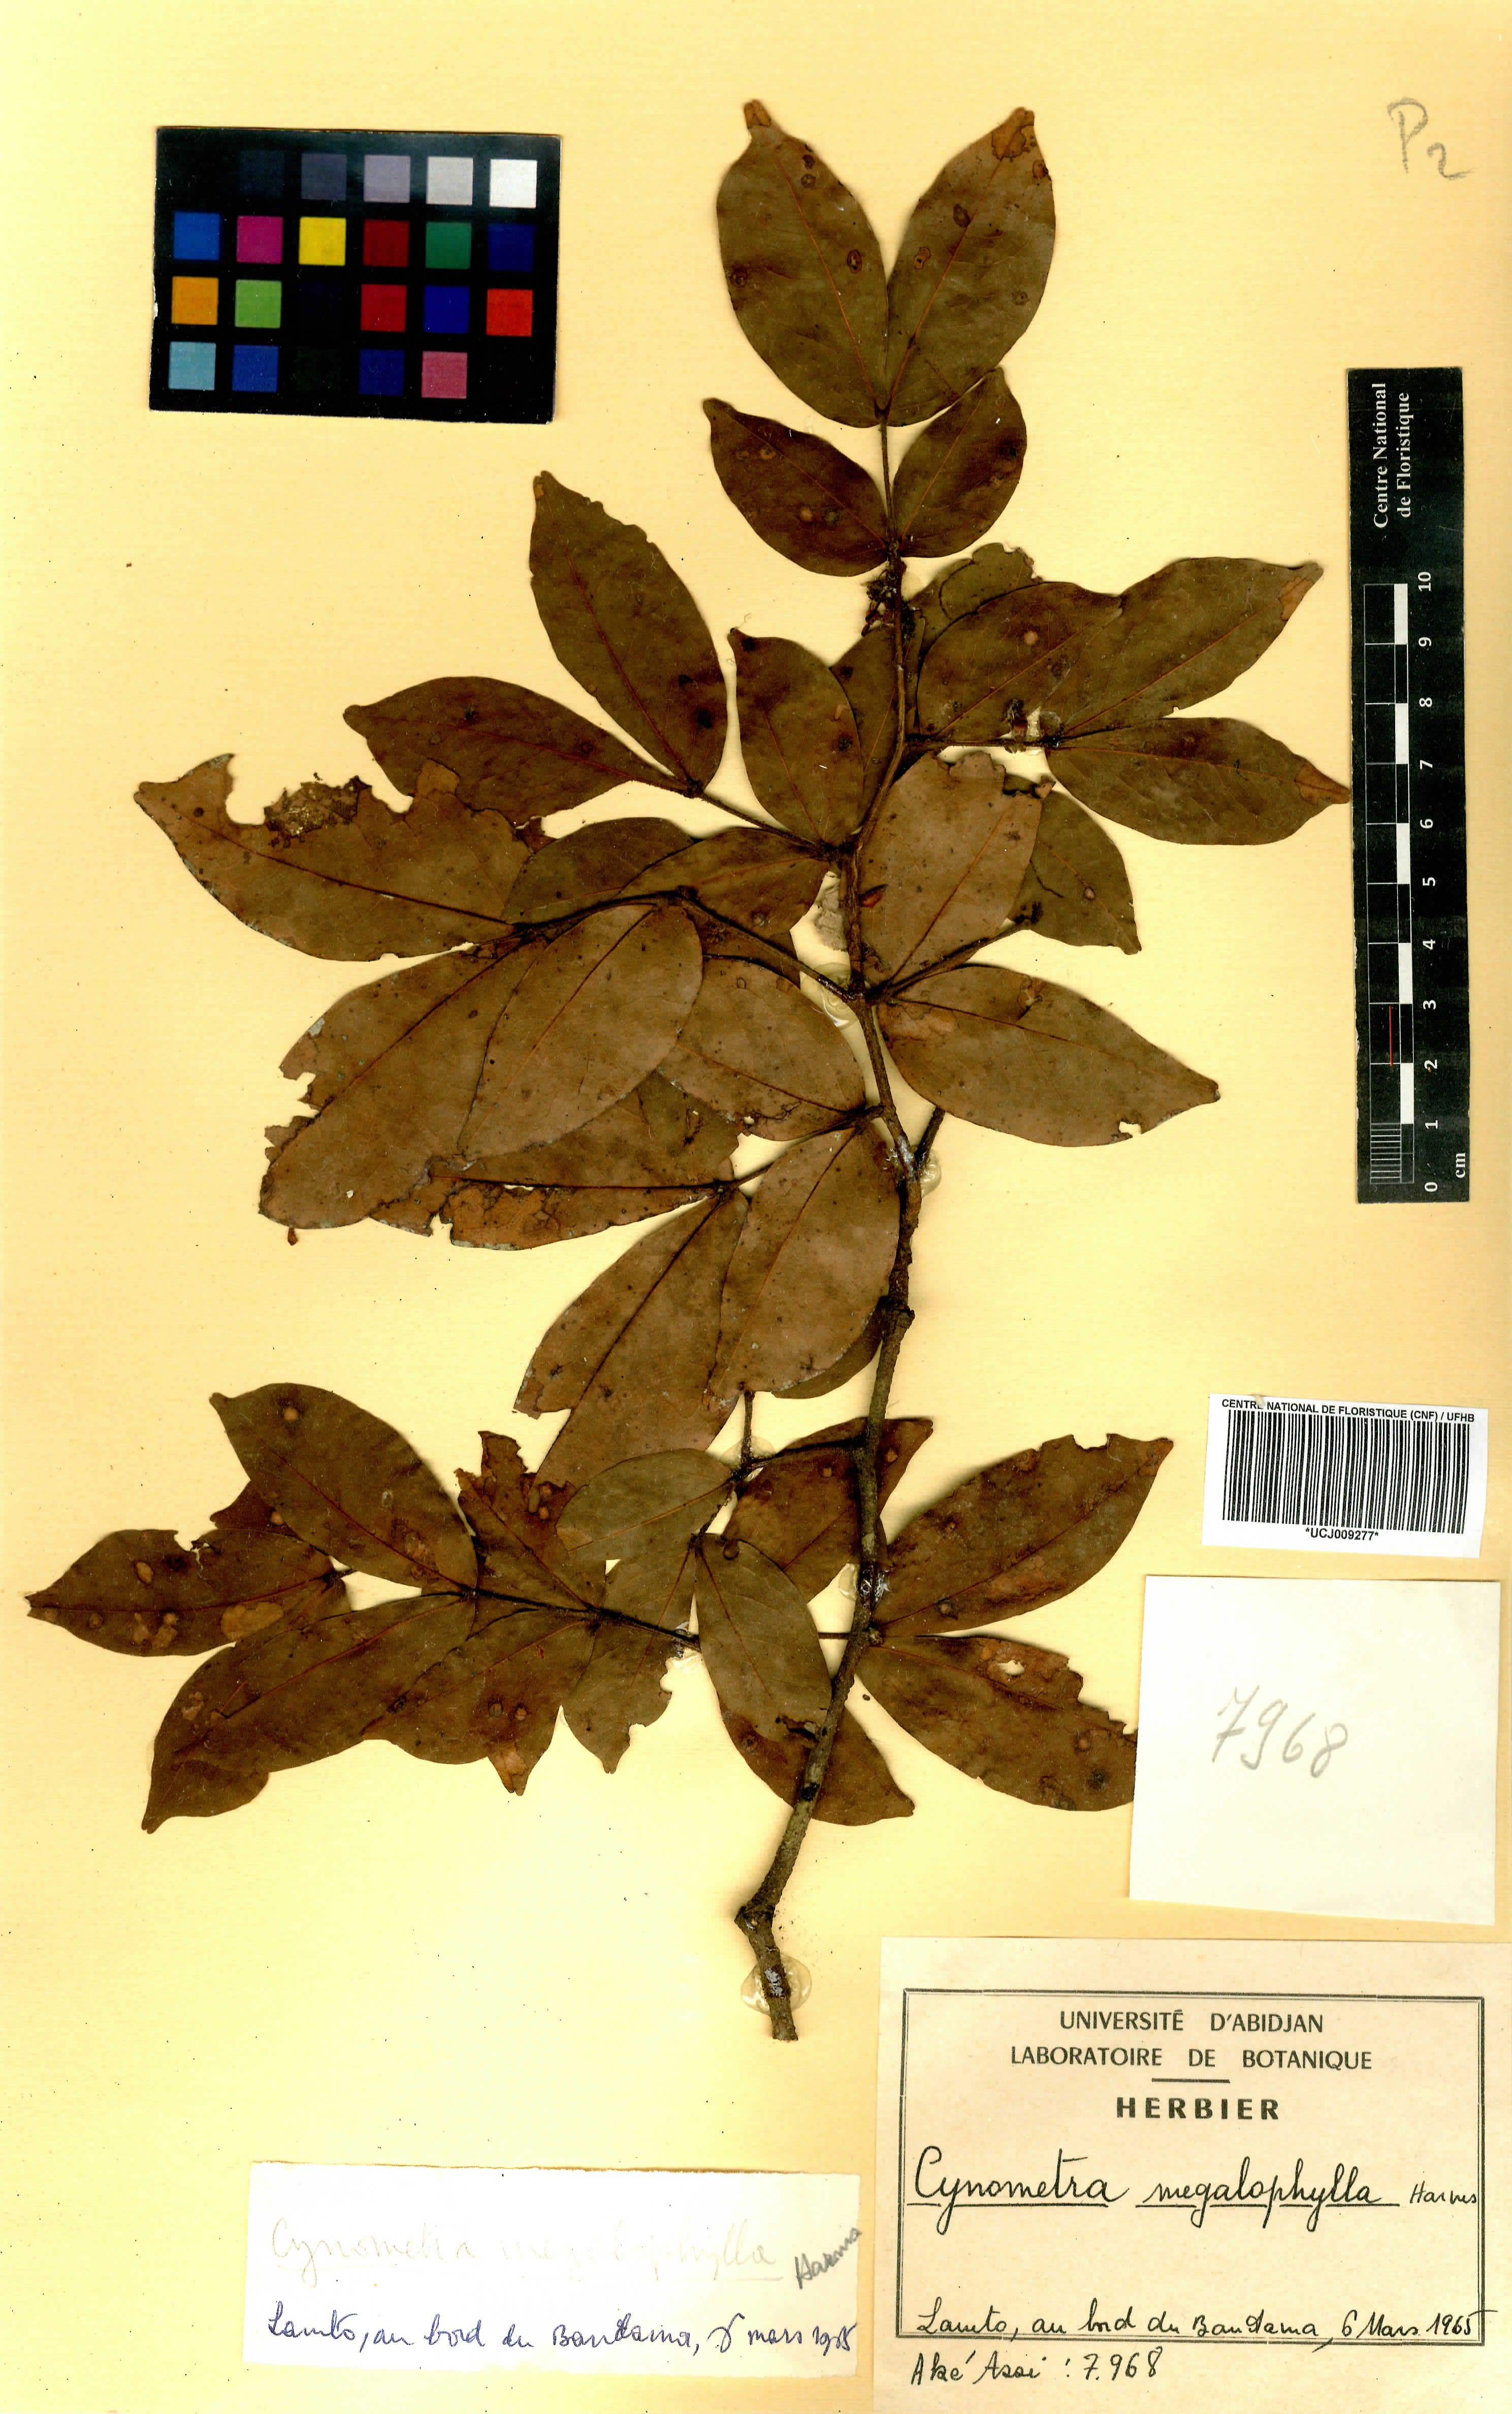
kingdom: Plantae
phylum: Tracheophyta
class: Magnoliopsida
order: Fabales
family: Fabaceae
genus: Cynometra
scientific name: Cynometra megalophylla
